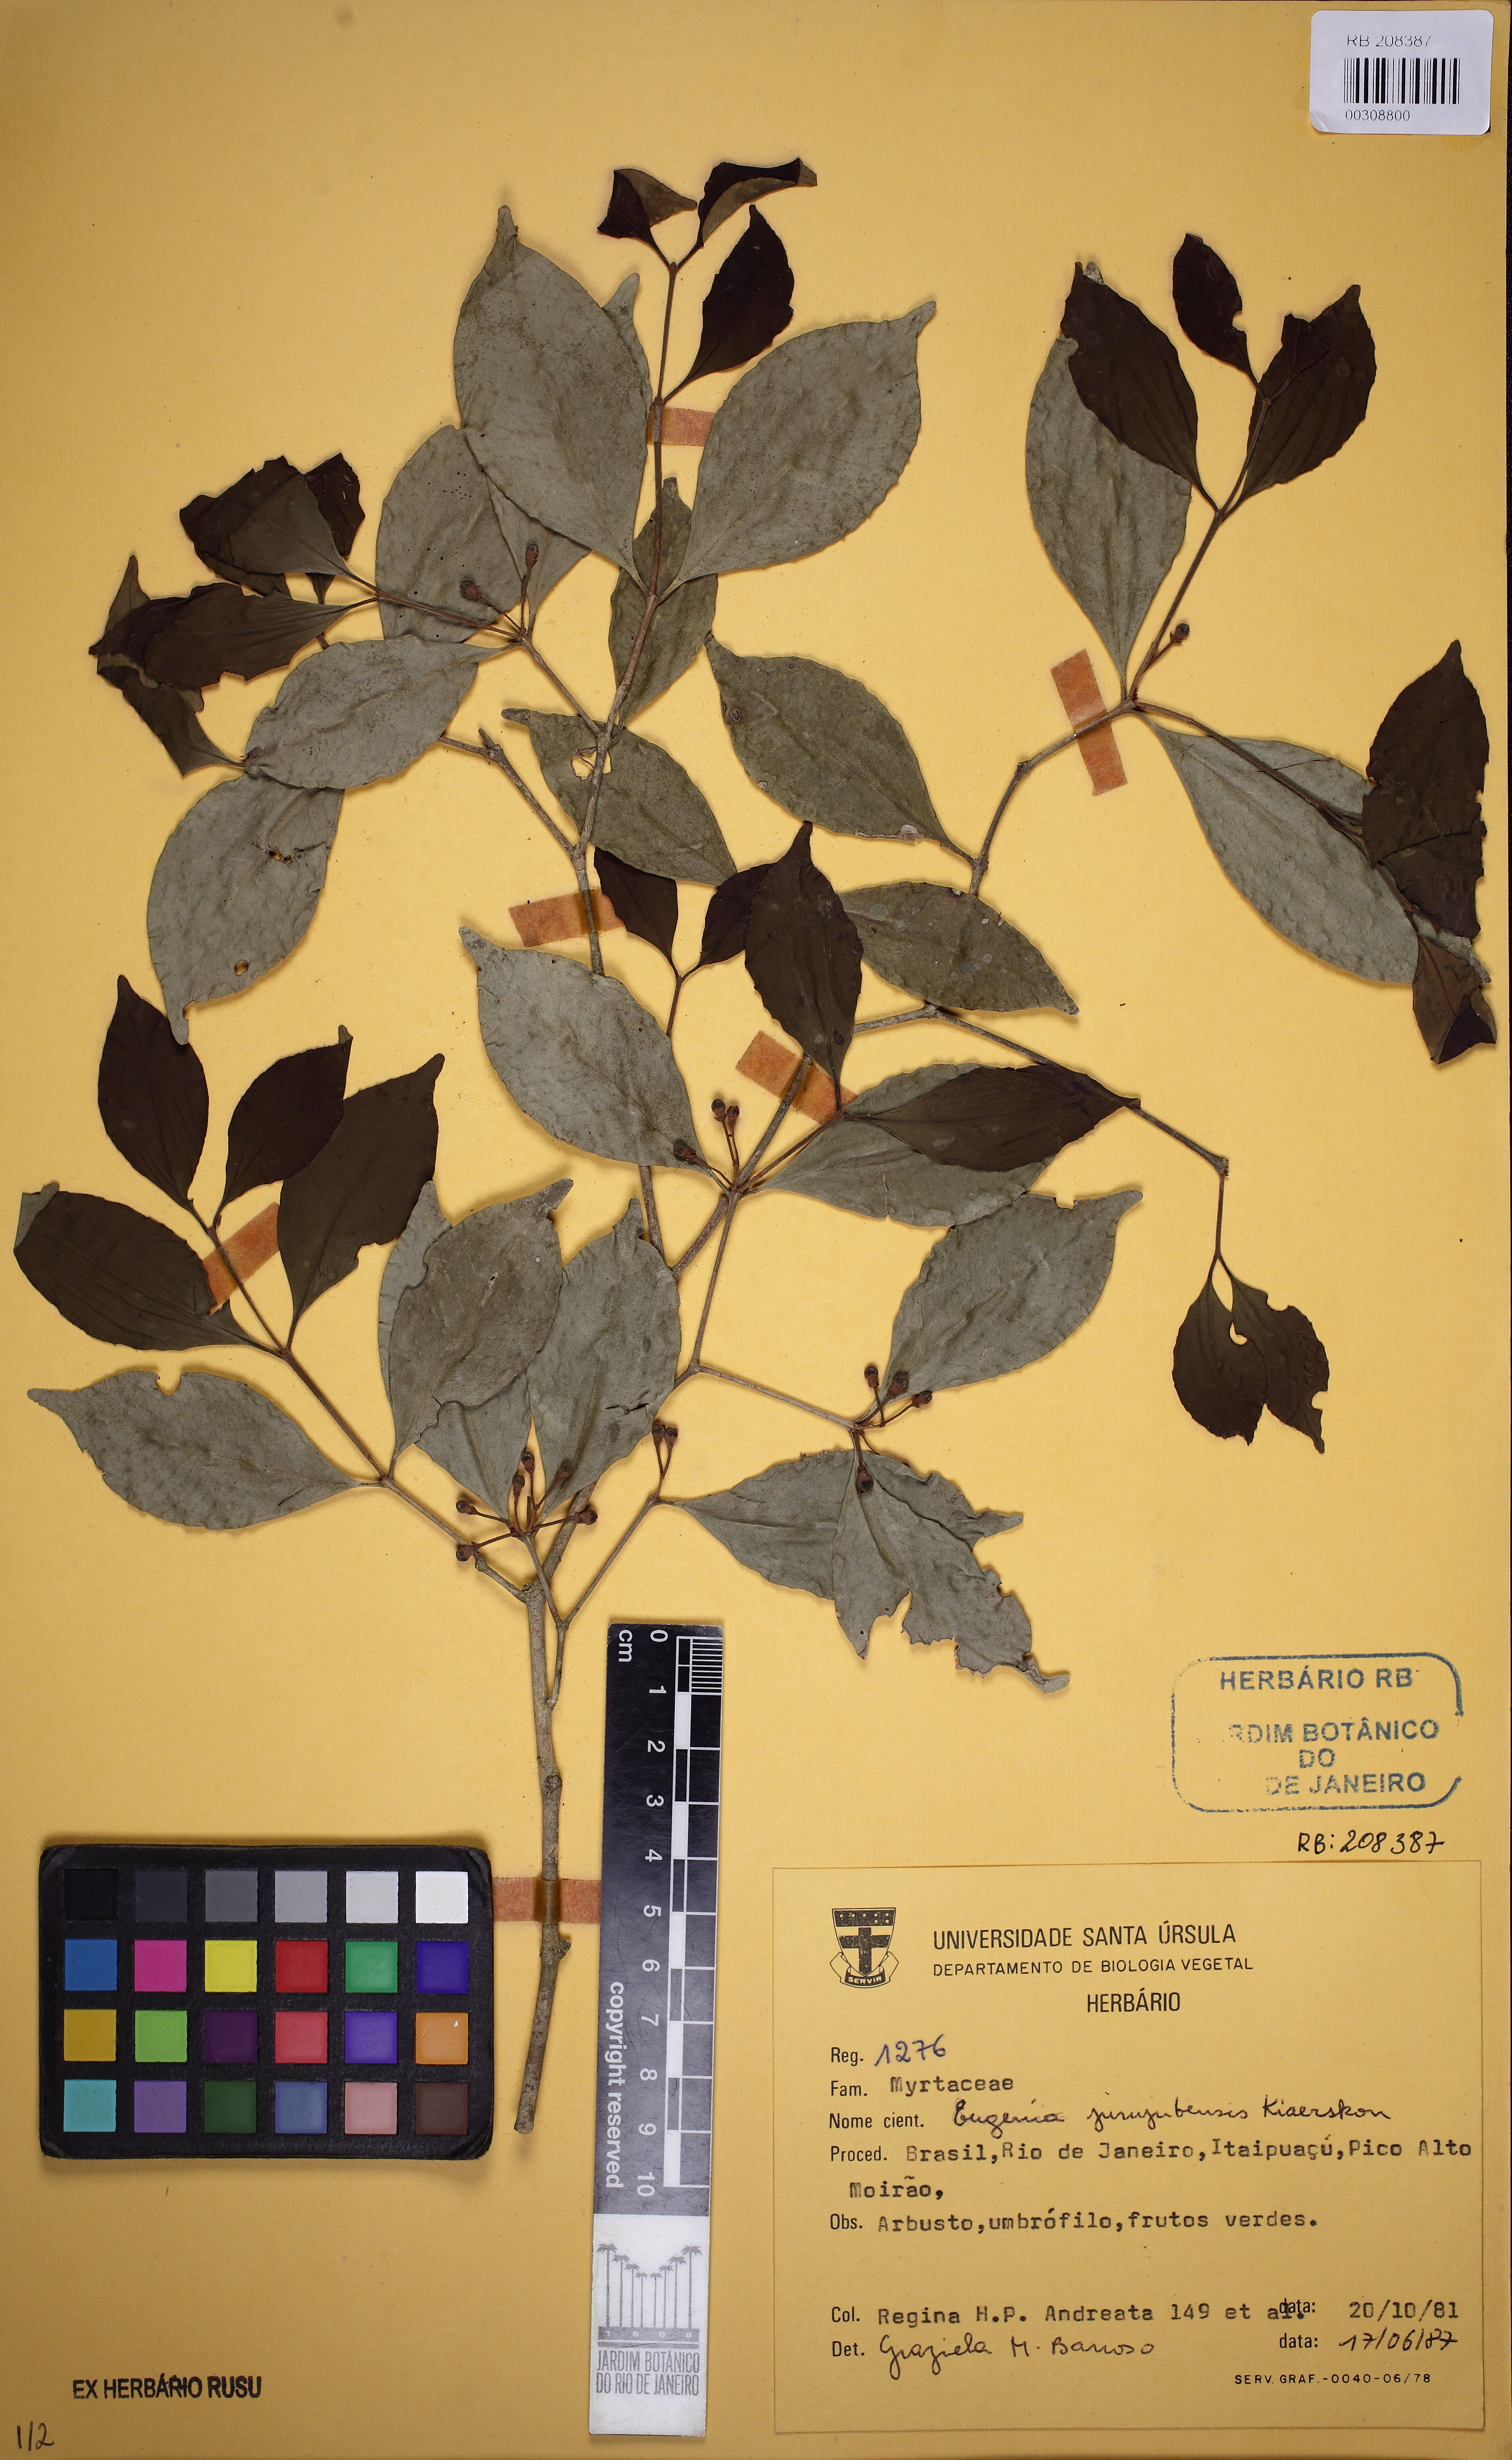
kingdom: Plantae
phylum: Tracheophyta
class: Magnoliopsida
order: Myrtales
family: Myrtaceae
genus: Eugenia
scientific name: Eugenia prasina
